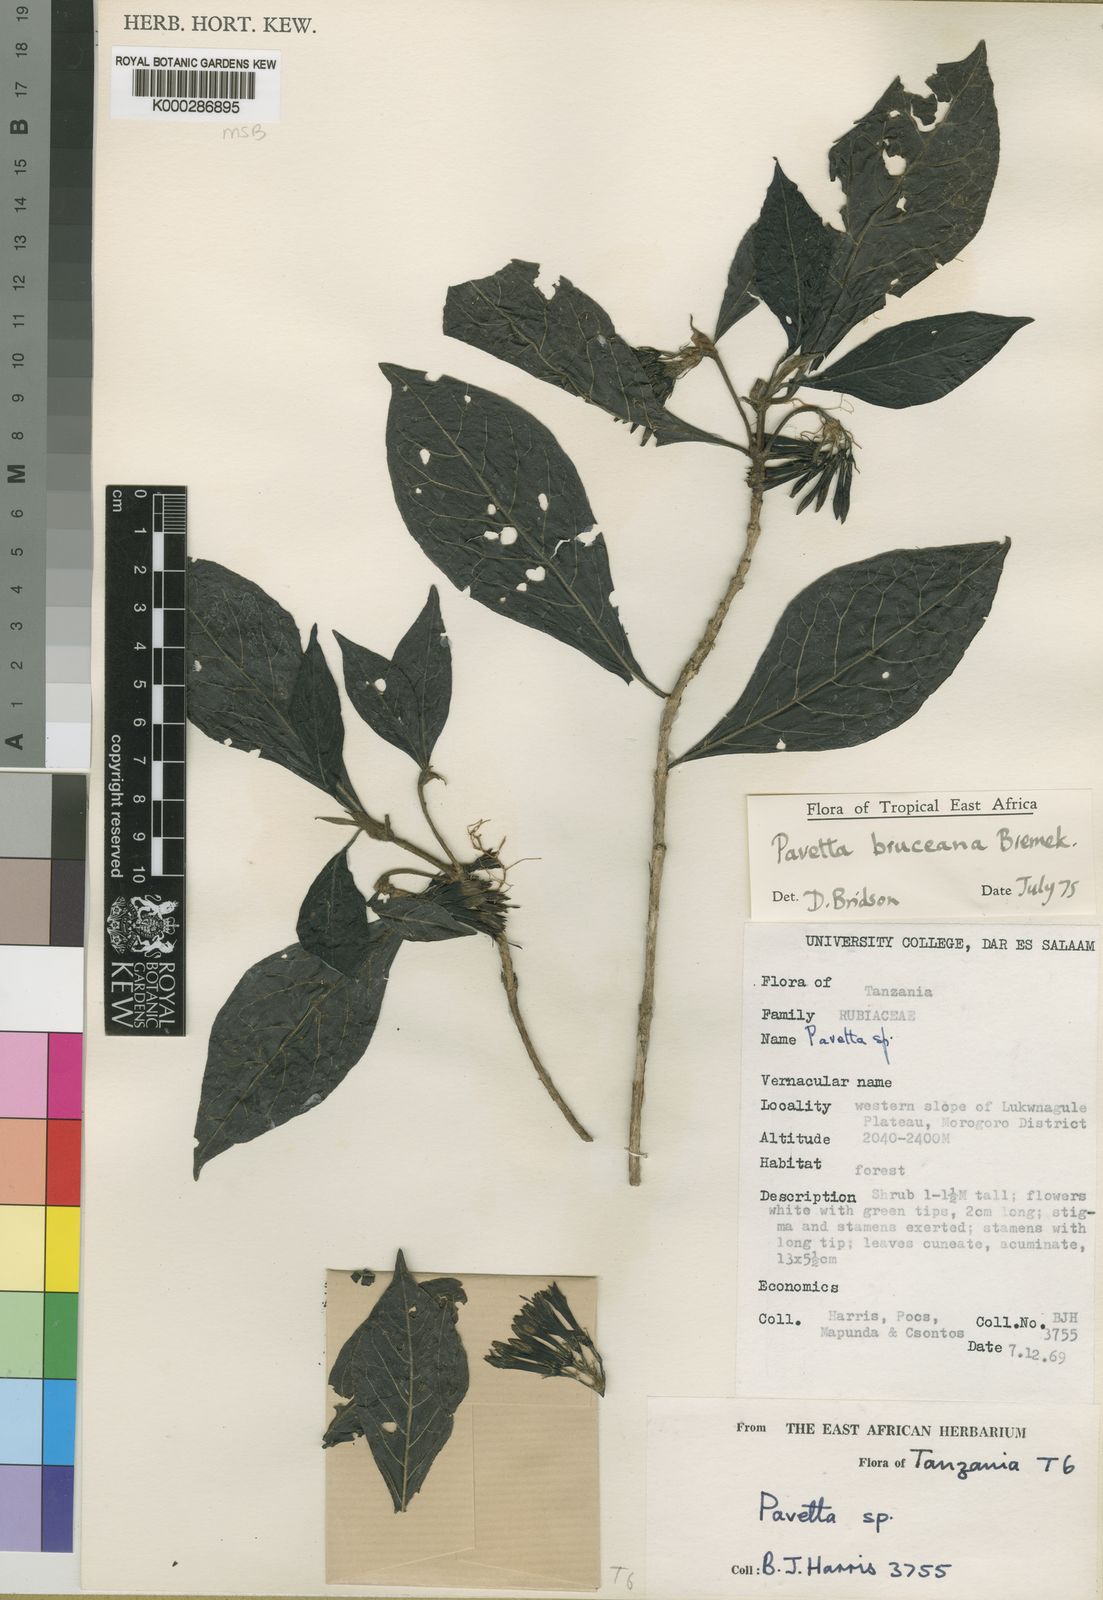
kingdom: Plantae
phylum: Tracheophyta
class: Magnoliopsida
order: Gentianales
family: Rubiaceae
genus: Pavetta
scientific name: Pavetta bruceana
